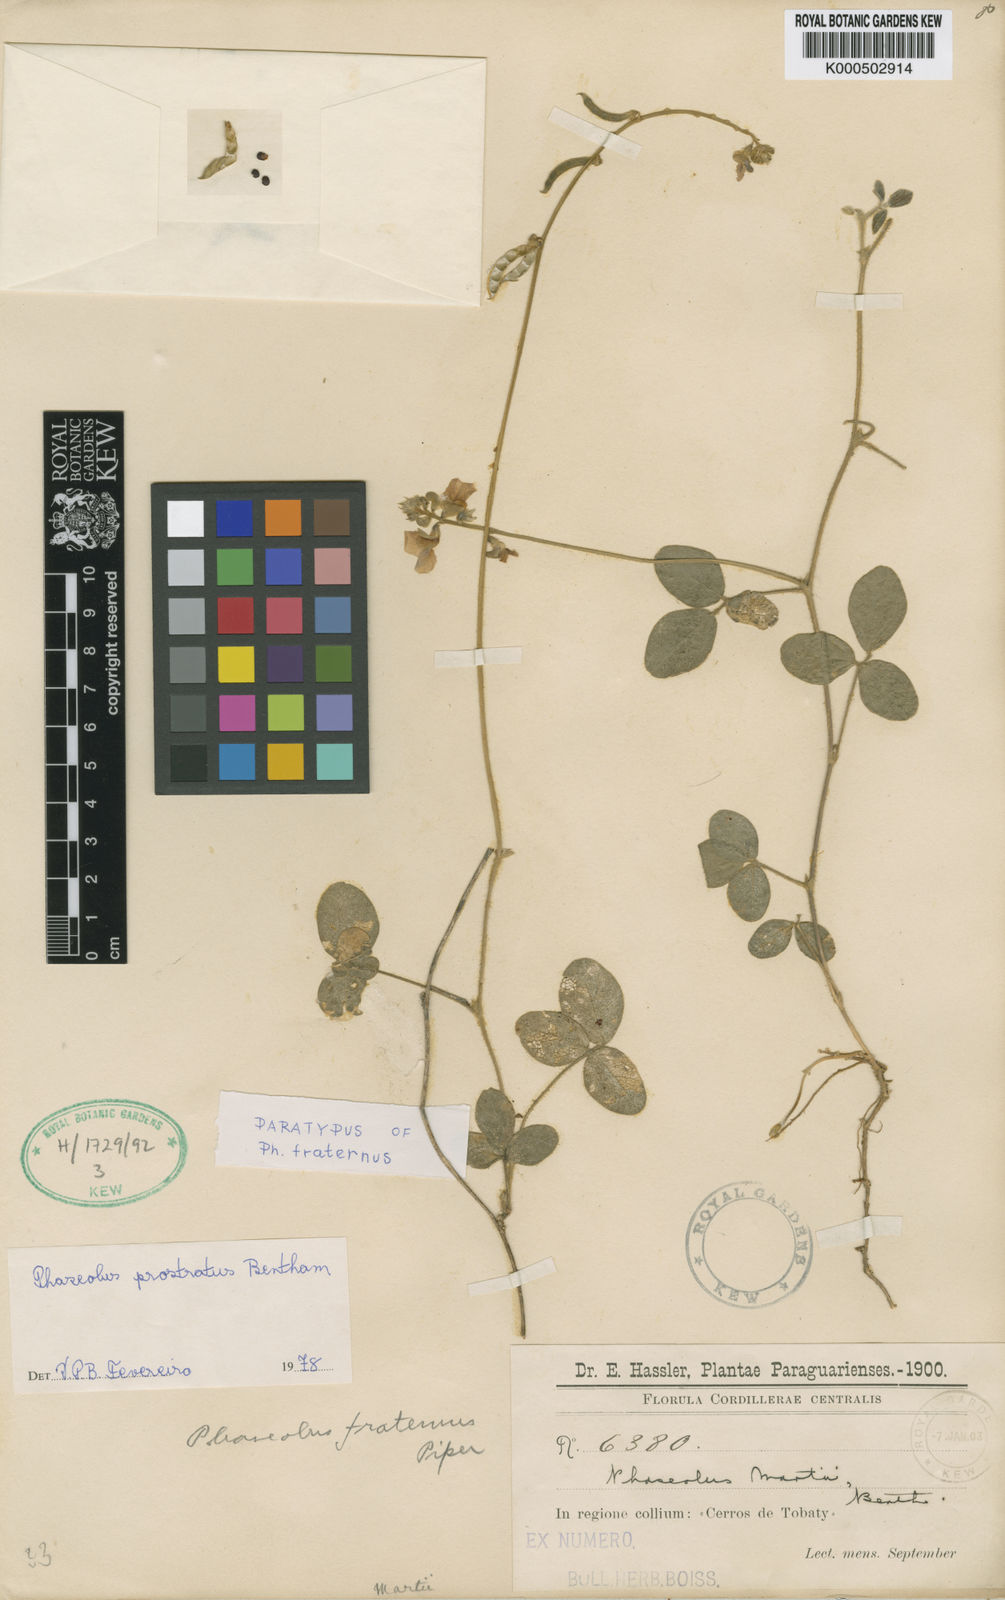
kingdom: Plantae
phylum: Tracheophyta
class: Magnoliopsida
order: Fabales
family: Fabaceae
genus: Macroptilium
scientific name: Macroptilium
